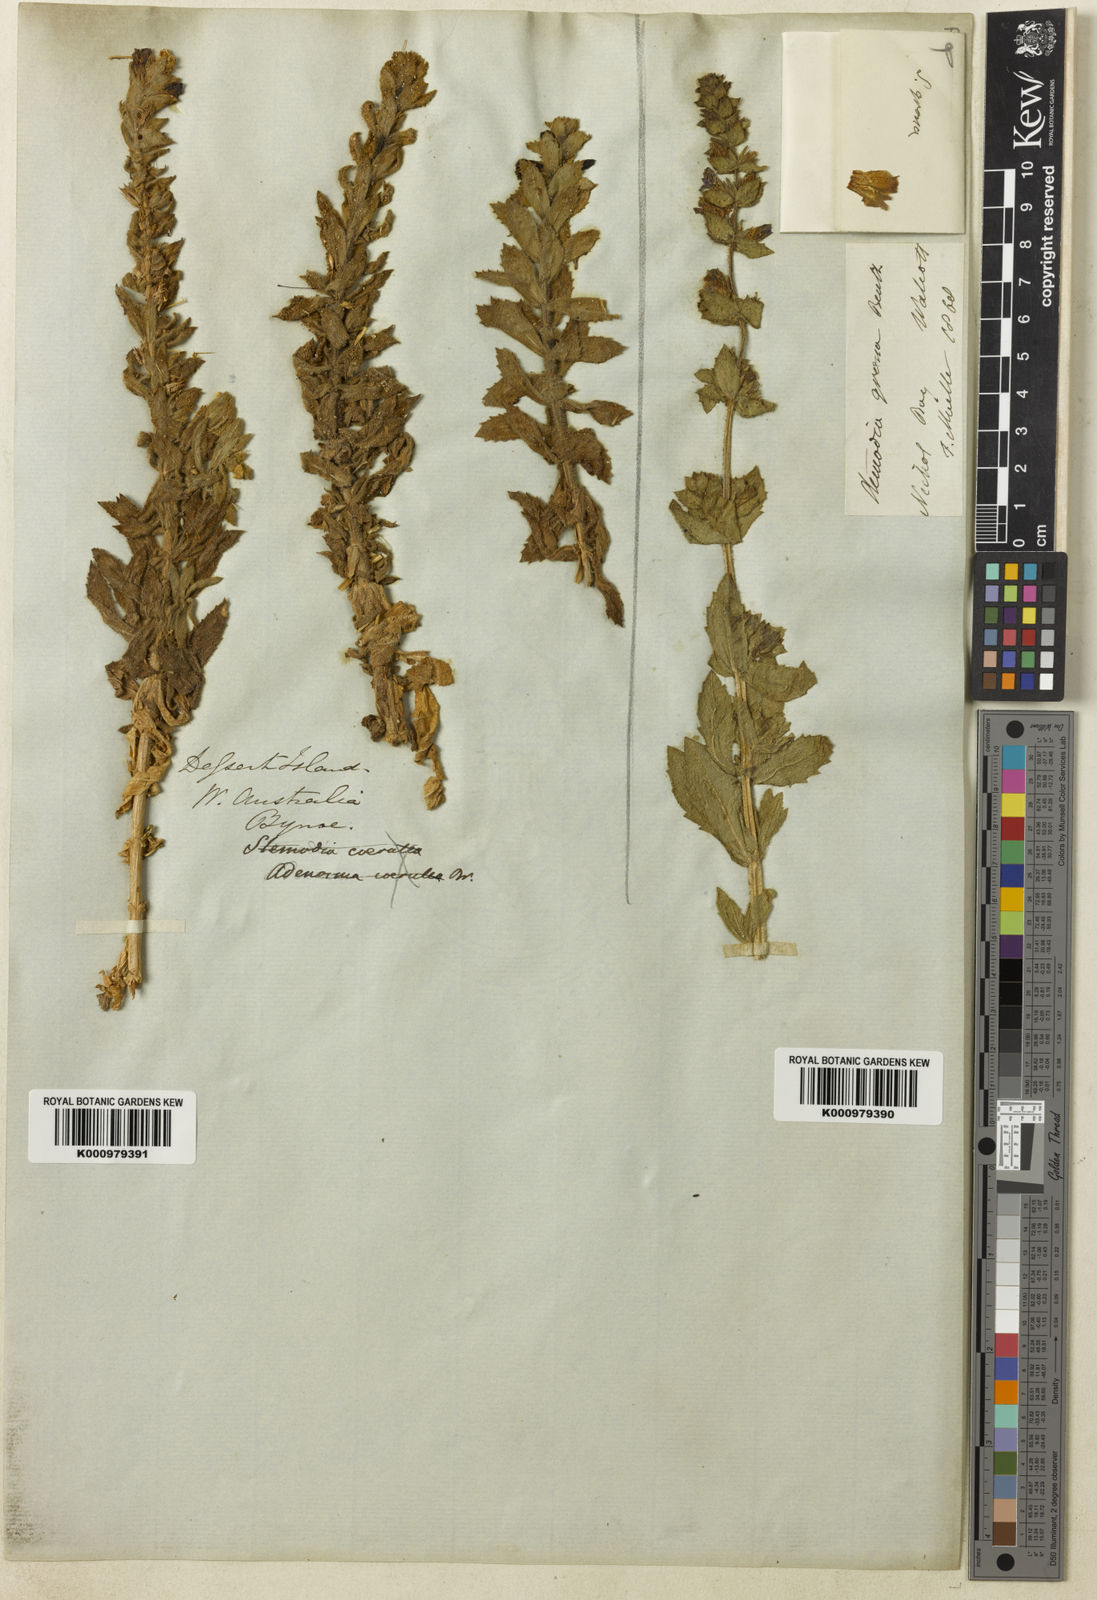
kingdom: Plantae
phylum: Tracheophyta
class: Magnoliopsida
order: Lamiales
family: Plantaginaceae
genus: Stemodia
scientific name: Stemodia grossa
